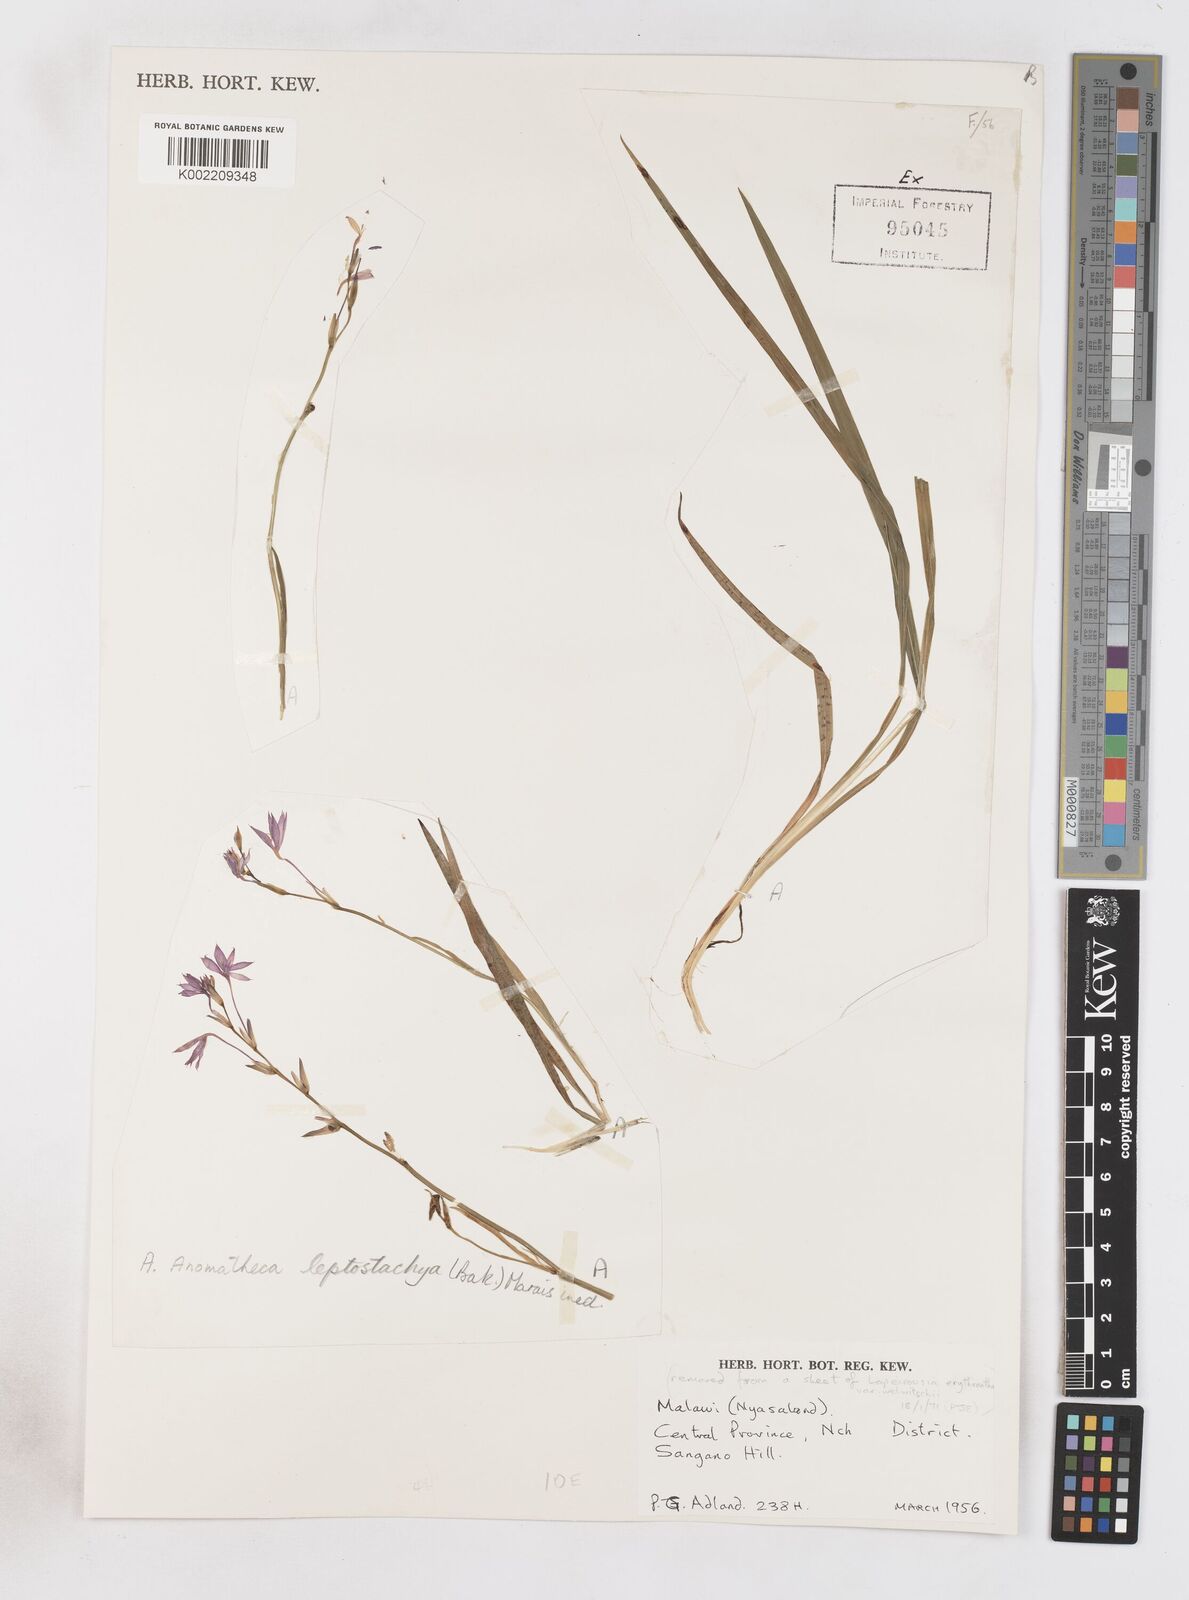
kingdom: Plantae
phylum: Tracheophyta
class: Liliopsida
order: Asparagales
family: Iridaceae
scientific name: Iridaceae
